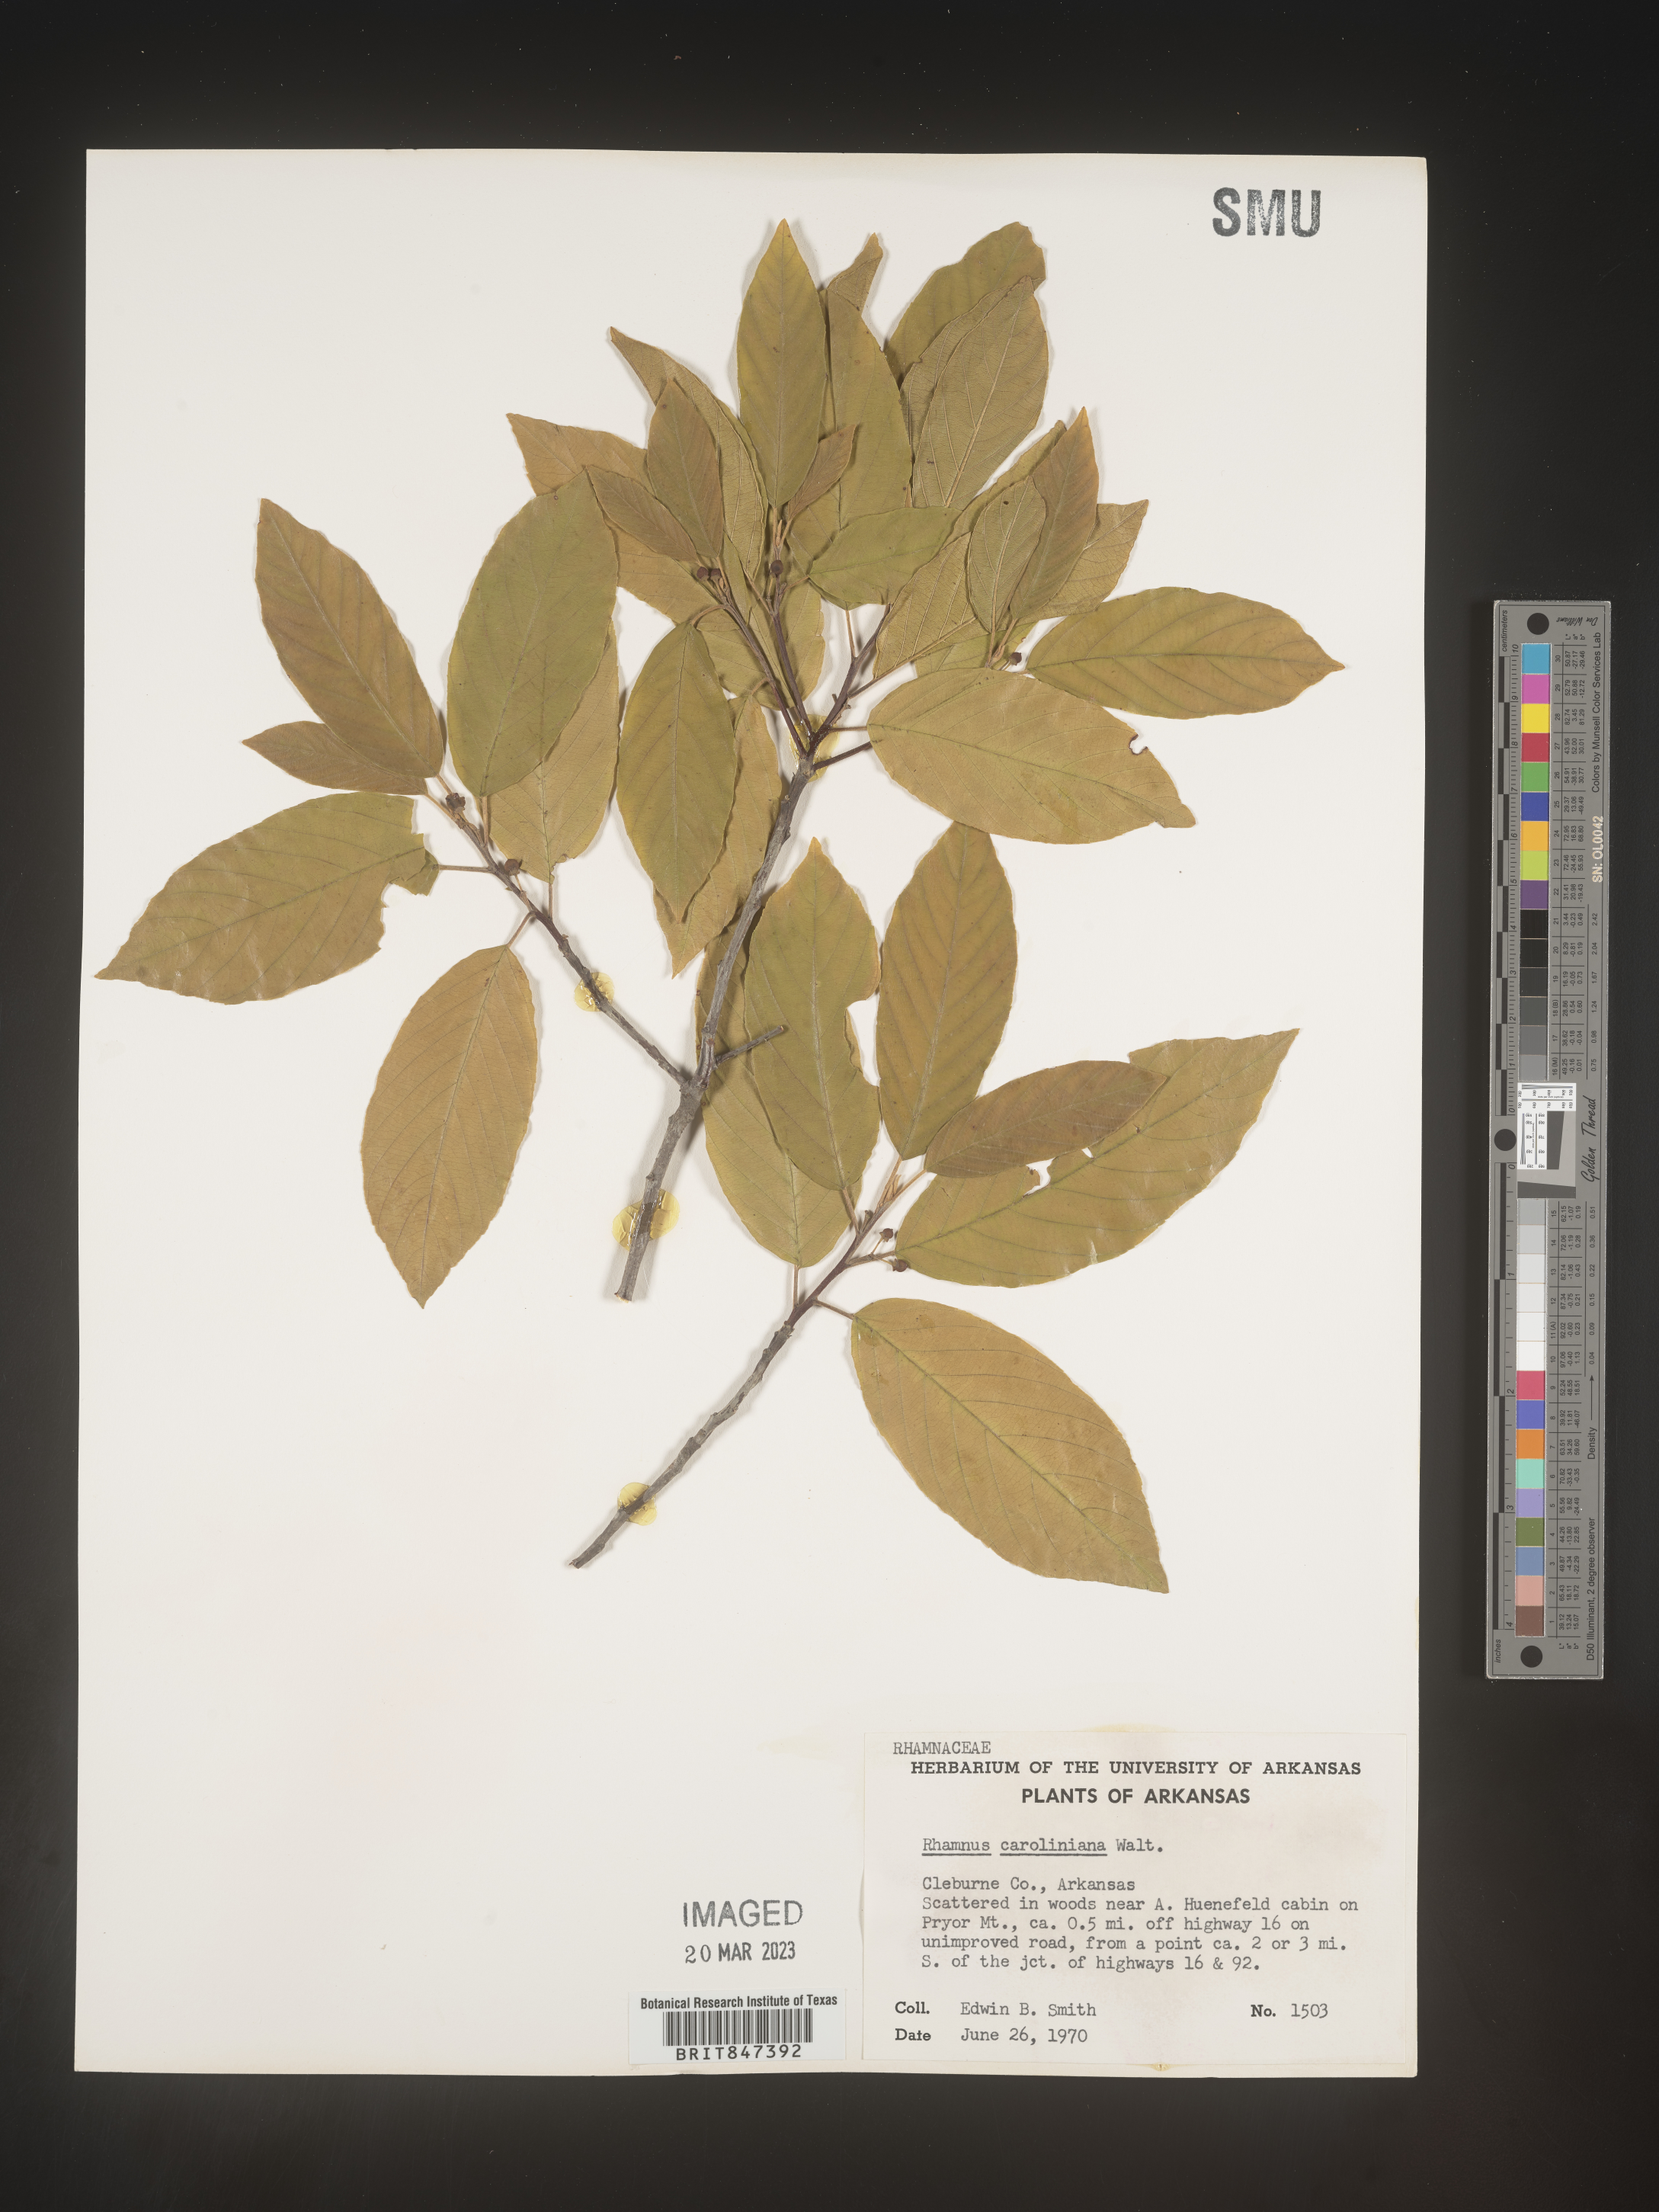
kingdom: Plantae
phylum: Tracheophyta
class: Magnoliopsida
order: Rosales
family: Rhamnaceae
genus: Frangula
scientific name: Frangula caroliniana
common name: Carolina buckthorn
